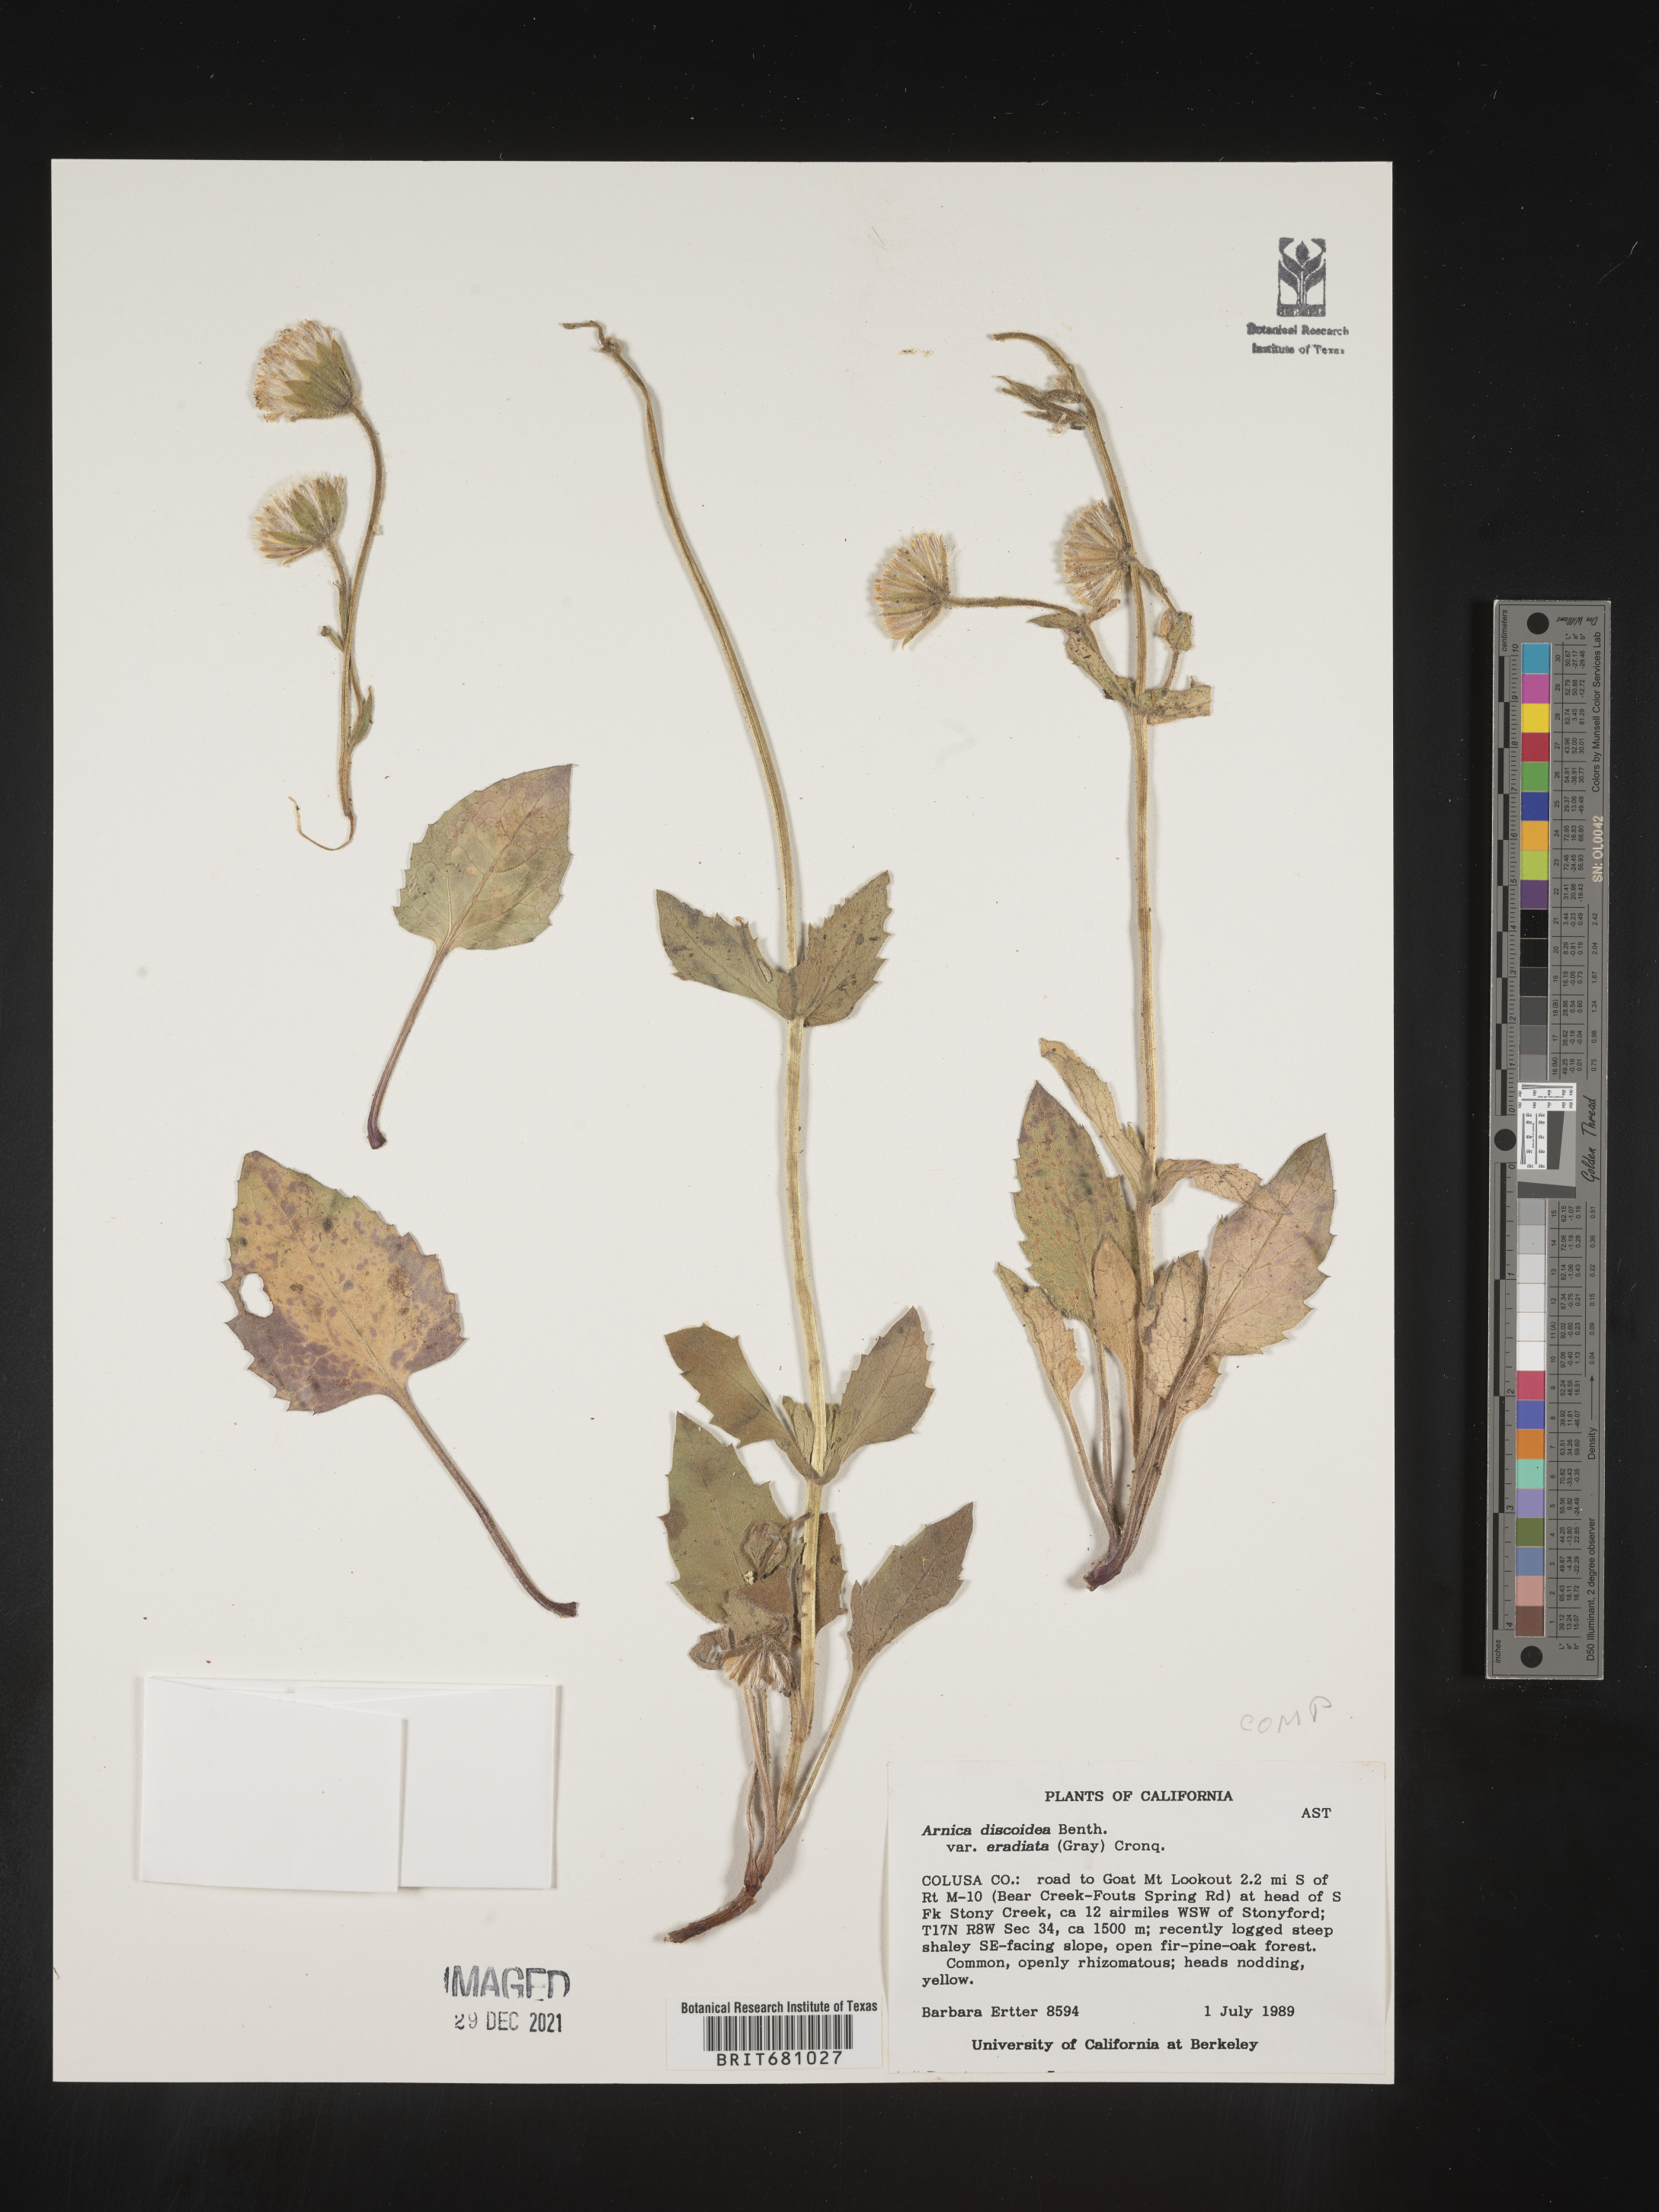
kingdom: Plantae
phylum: Tracheophyta
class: Magnoliopsida
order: Asterales
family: Asteraceae
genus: Arnica
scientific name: Arnica
